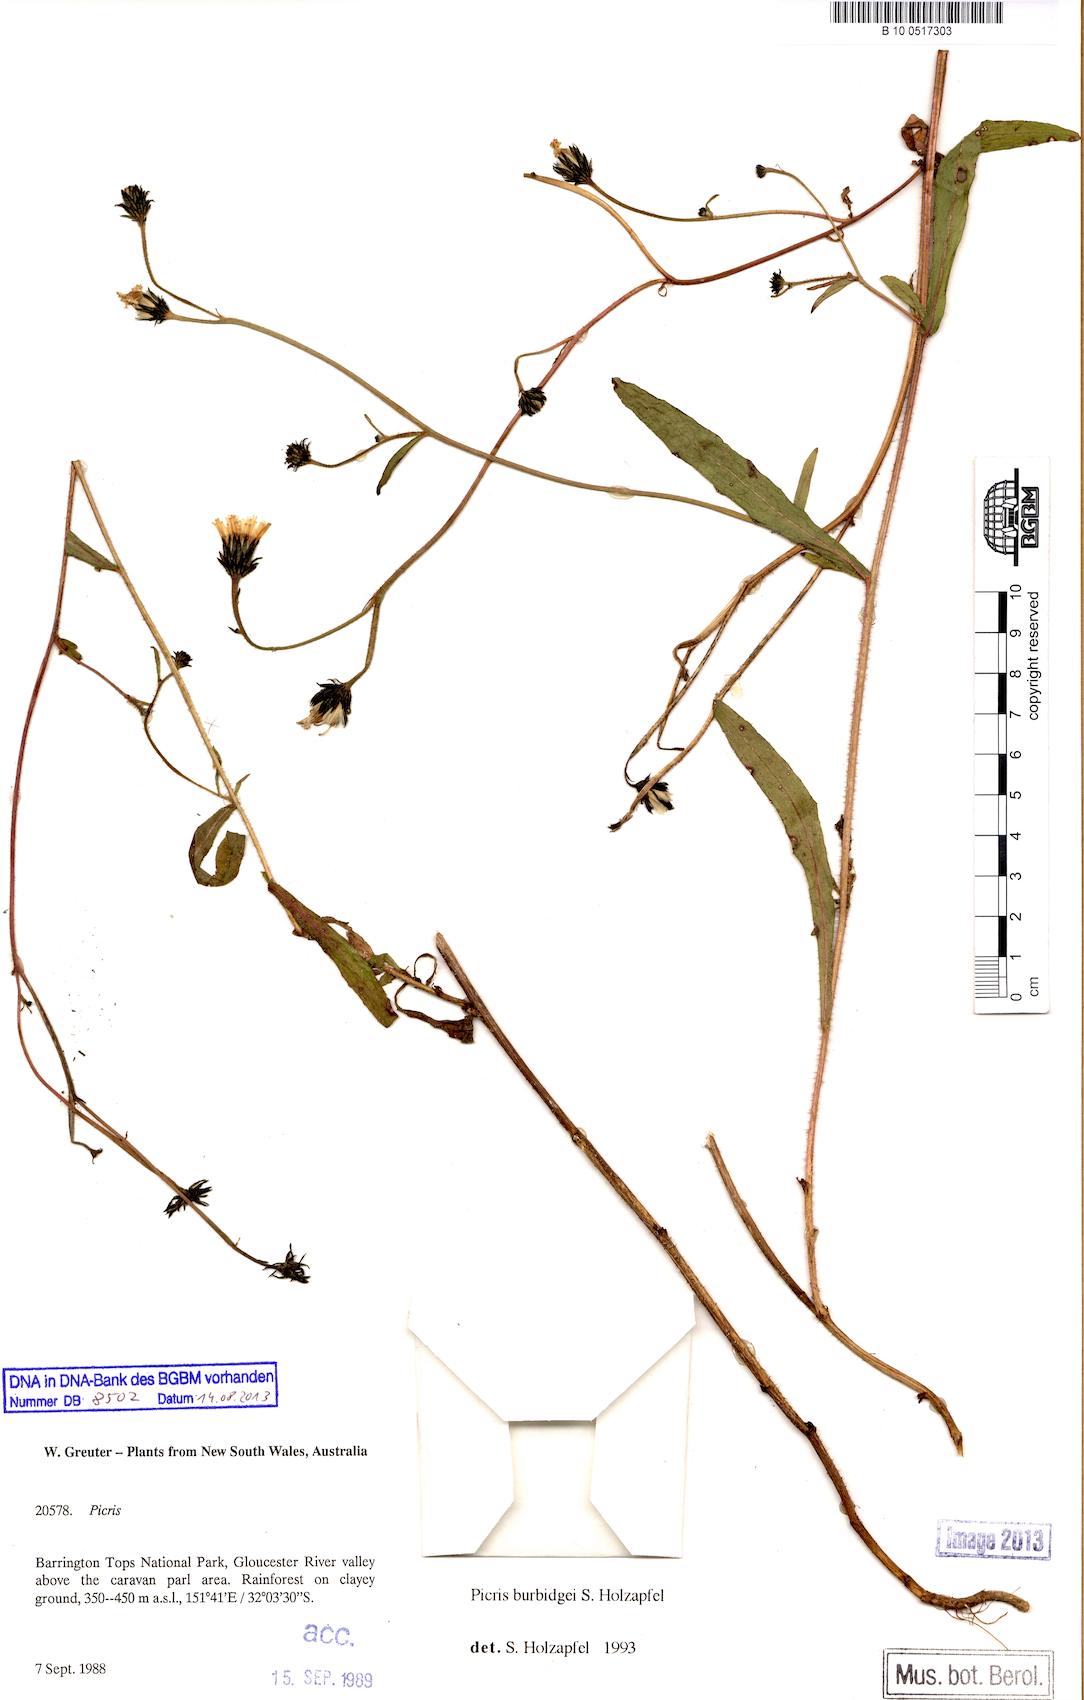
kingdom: Plantae
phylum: Tracheophyta
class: Magnoliopsida
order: Asterales
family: Asteraceae
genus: Picris
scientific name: Picris burbidgeae
